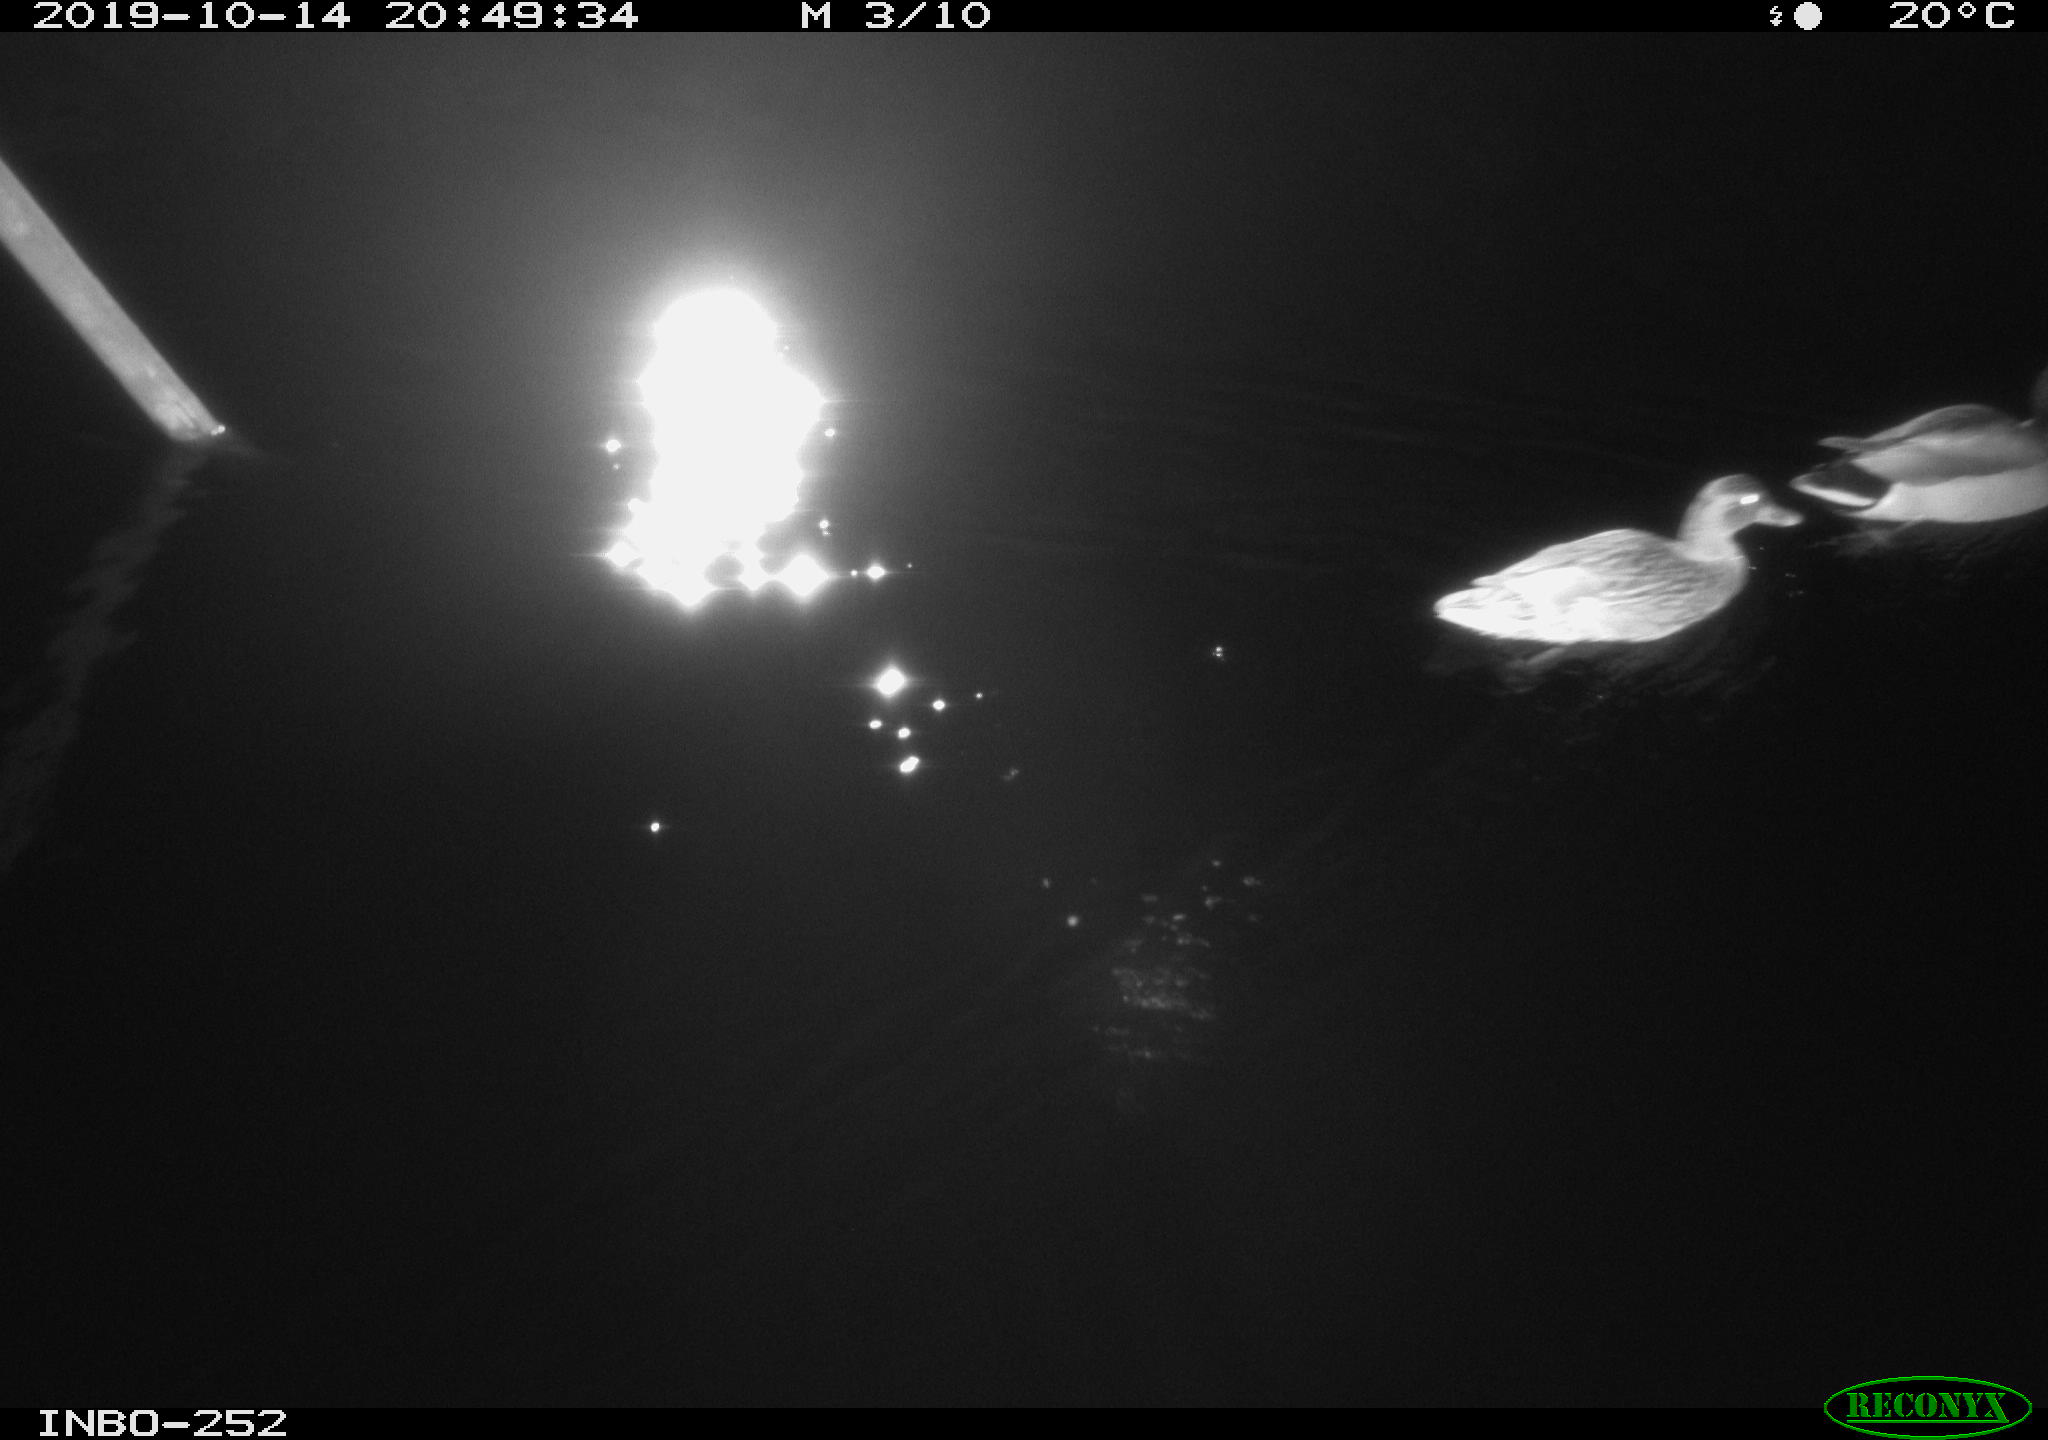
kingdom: Animalia
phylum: Chordata
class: Aves
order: Anseriformes
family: Anatidae
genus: Anas
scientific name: Anas platyrhynchos
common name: Mallard
